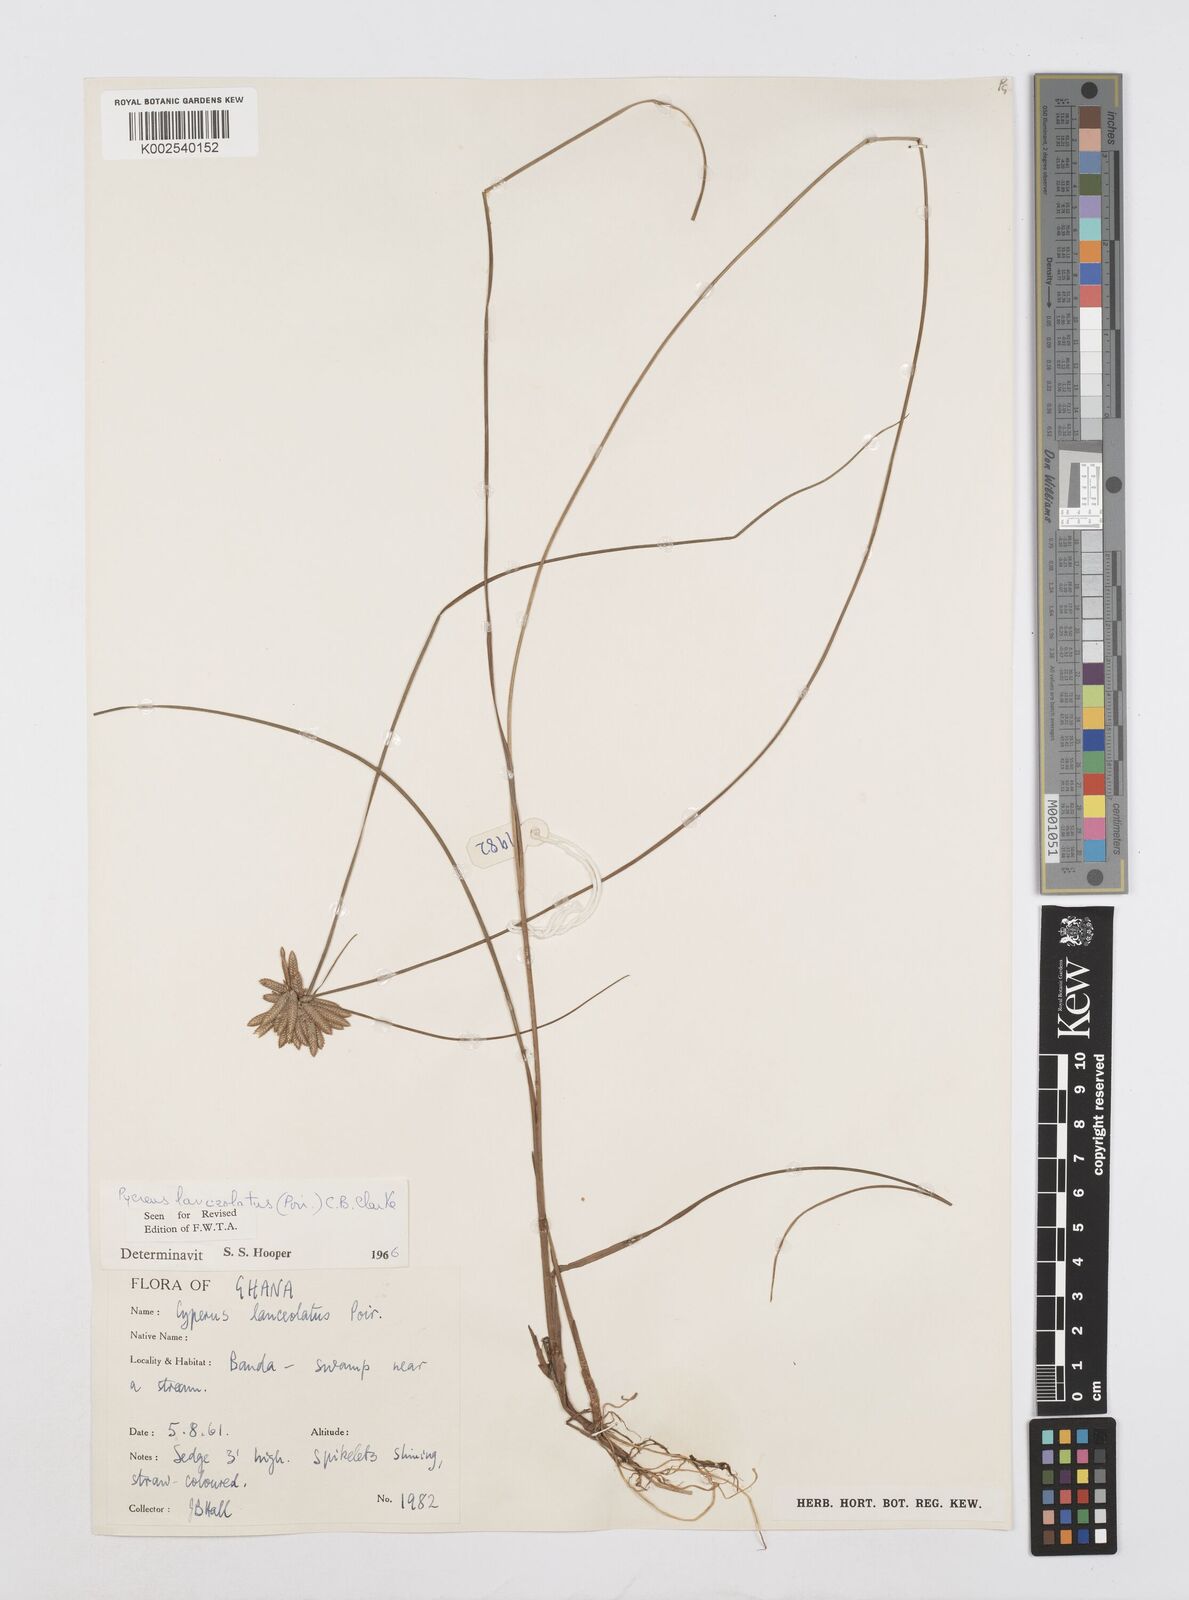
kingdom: Plantae
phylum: Tracheophyta
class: Liliopsida
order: Poales
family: Cyperaceae
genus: Cyperus
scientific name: Cyperus
